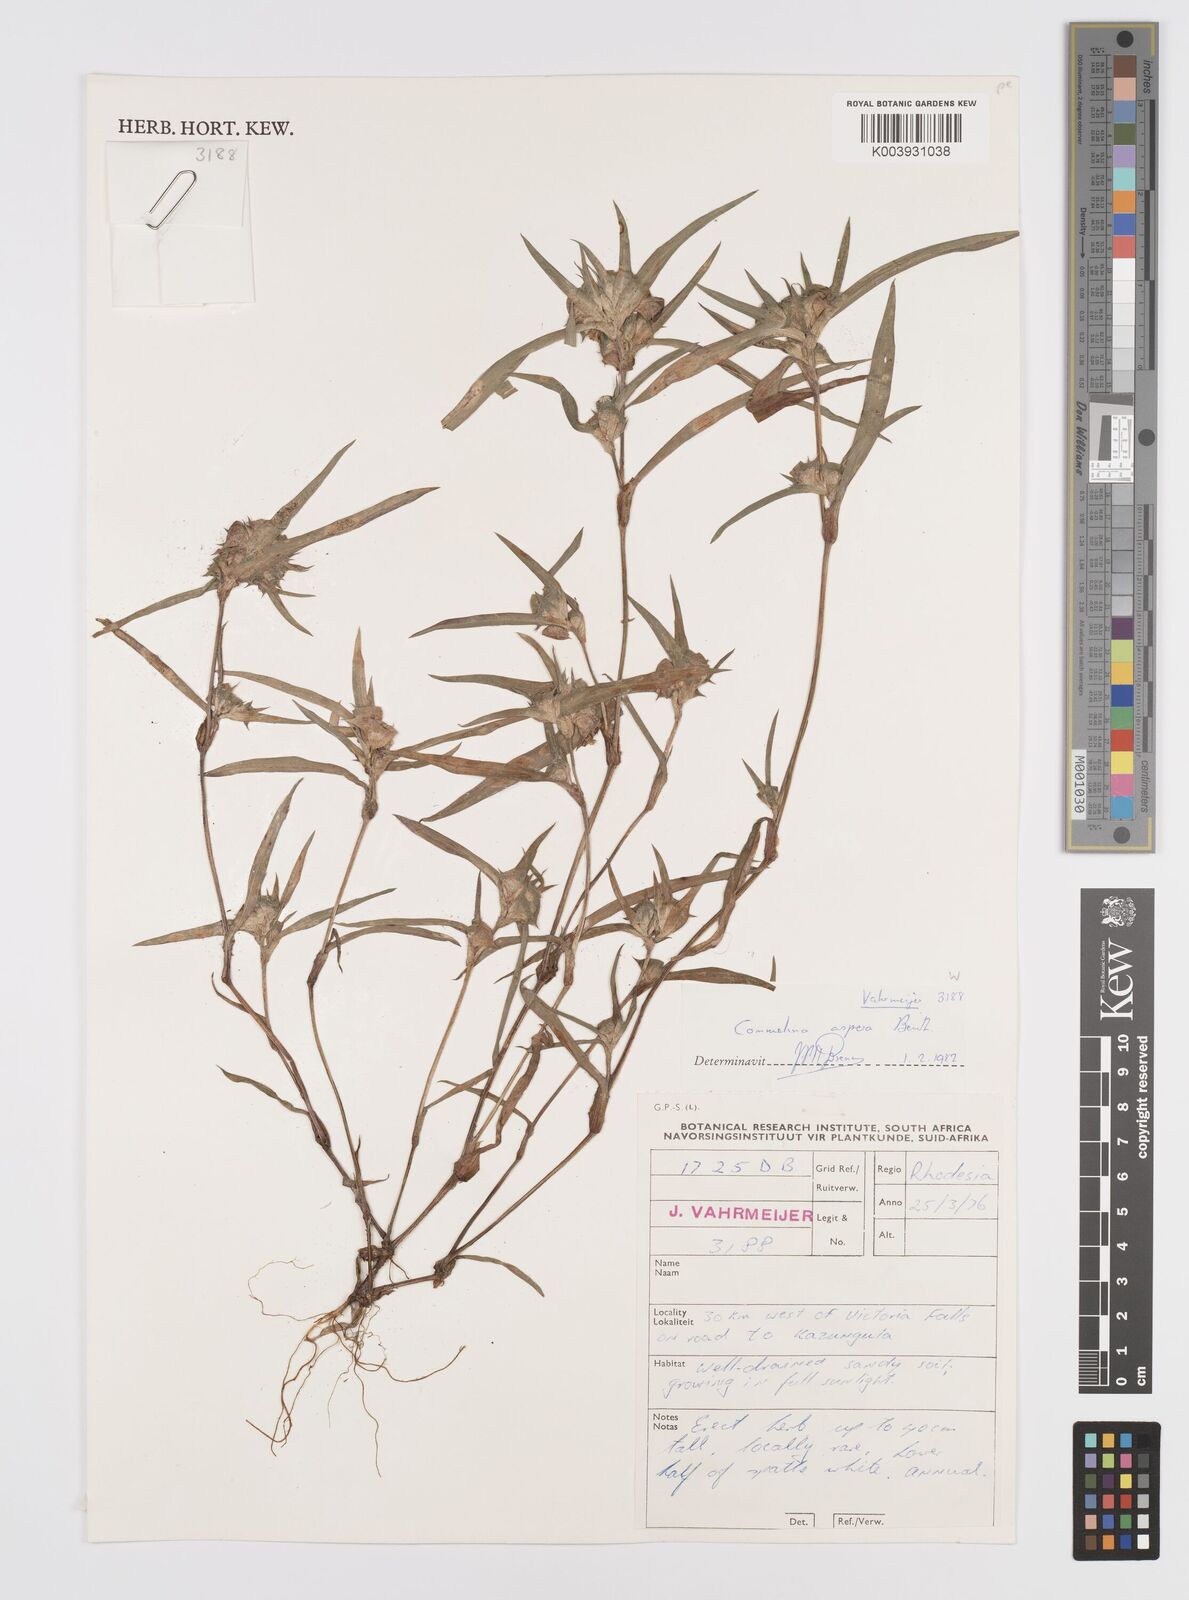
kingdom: Plantae
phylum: Tracheophyta
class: Liliopsida
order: Commelinales
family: Commelinaceae
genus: Commelina
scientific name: Commelina aspera
